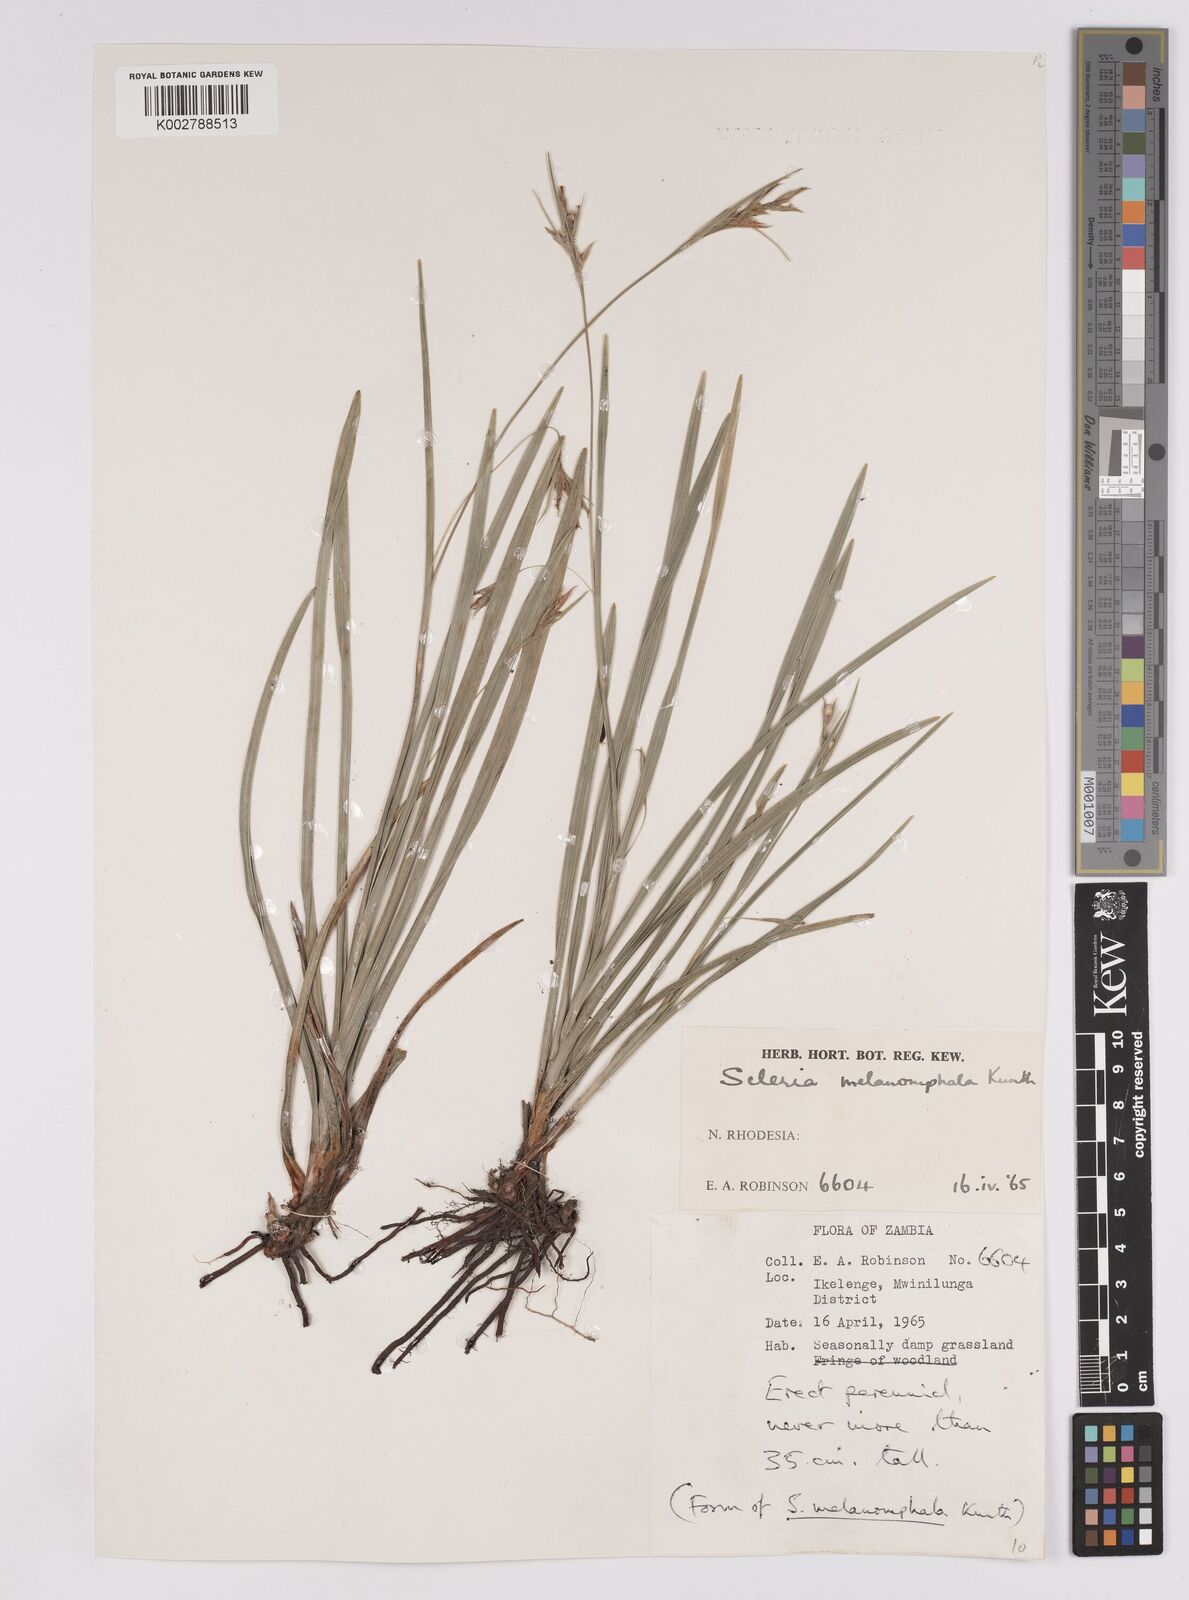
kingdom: Plantae
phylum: Tracheophyta
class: Liliopsida
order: Poales
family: Cyperaceae
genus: Scleria
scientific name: Scleria melanomphala
